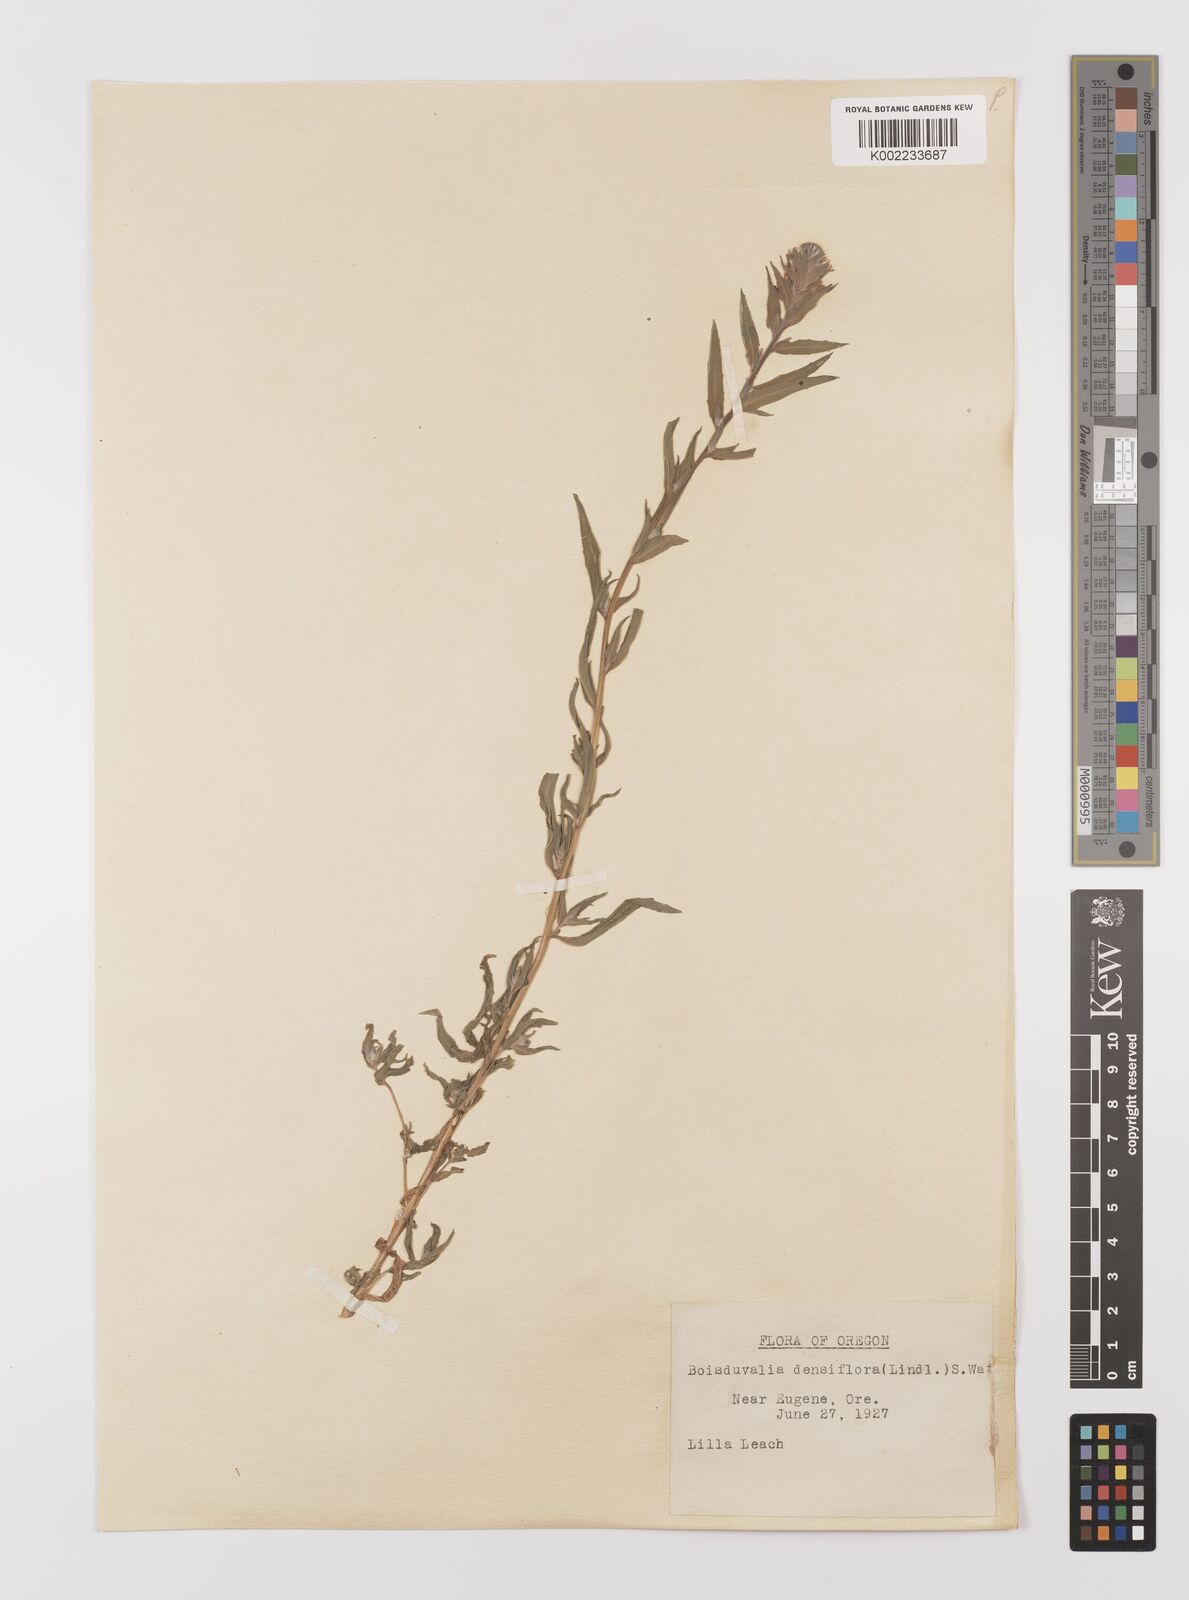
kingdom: Plantae
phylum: Tracheophyta
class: Magnoliopsida
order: Myrtales
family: Onagraceae
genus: Epilobium
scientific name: Epilobium densiflorum
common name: Dense spike-primrose
